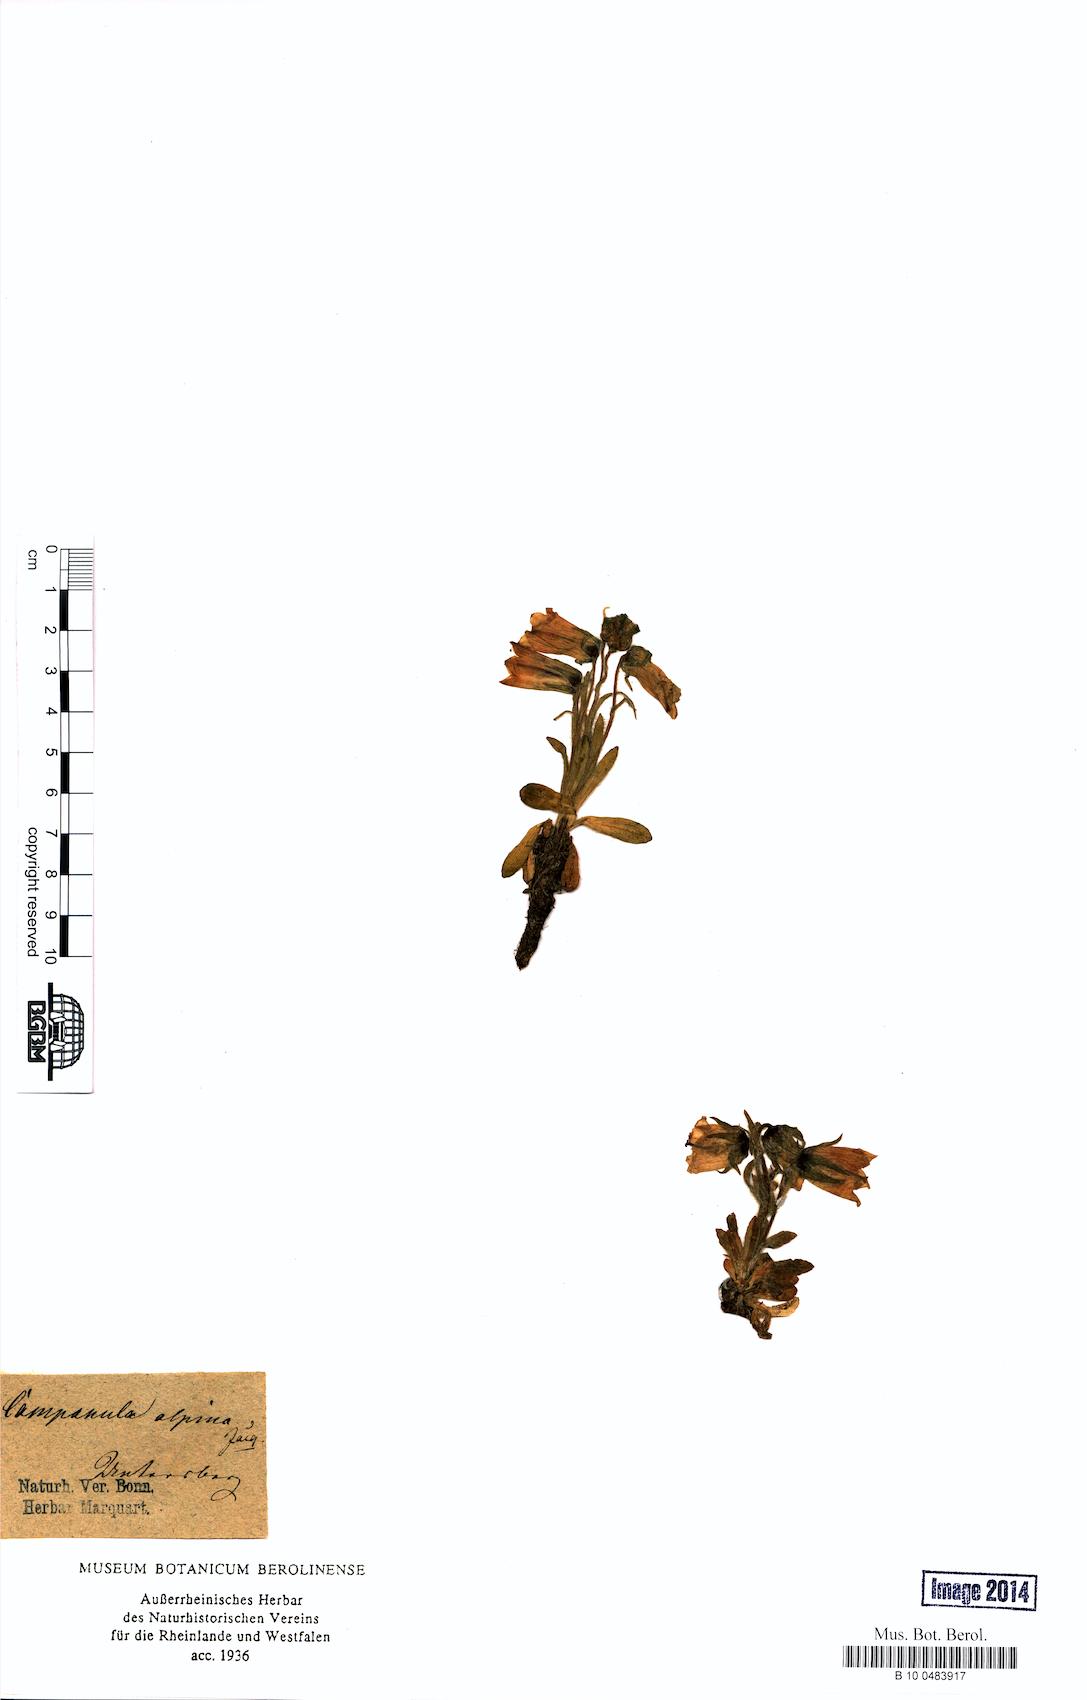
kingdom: Plantae
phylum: Tracheophyta
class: Magnoliopsida
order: Asterales
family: Campanulaceae
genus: Campanula
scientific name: Campanula alpina
